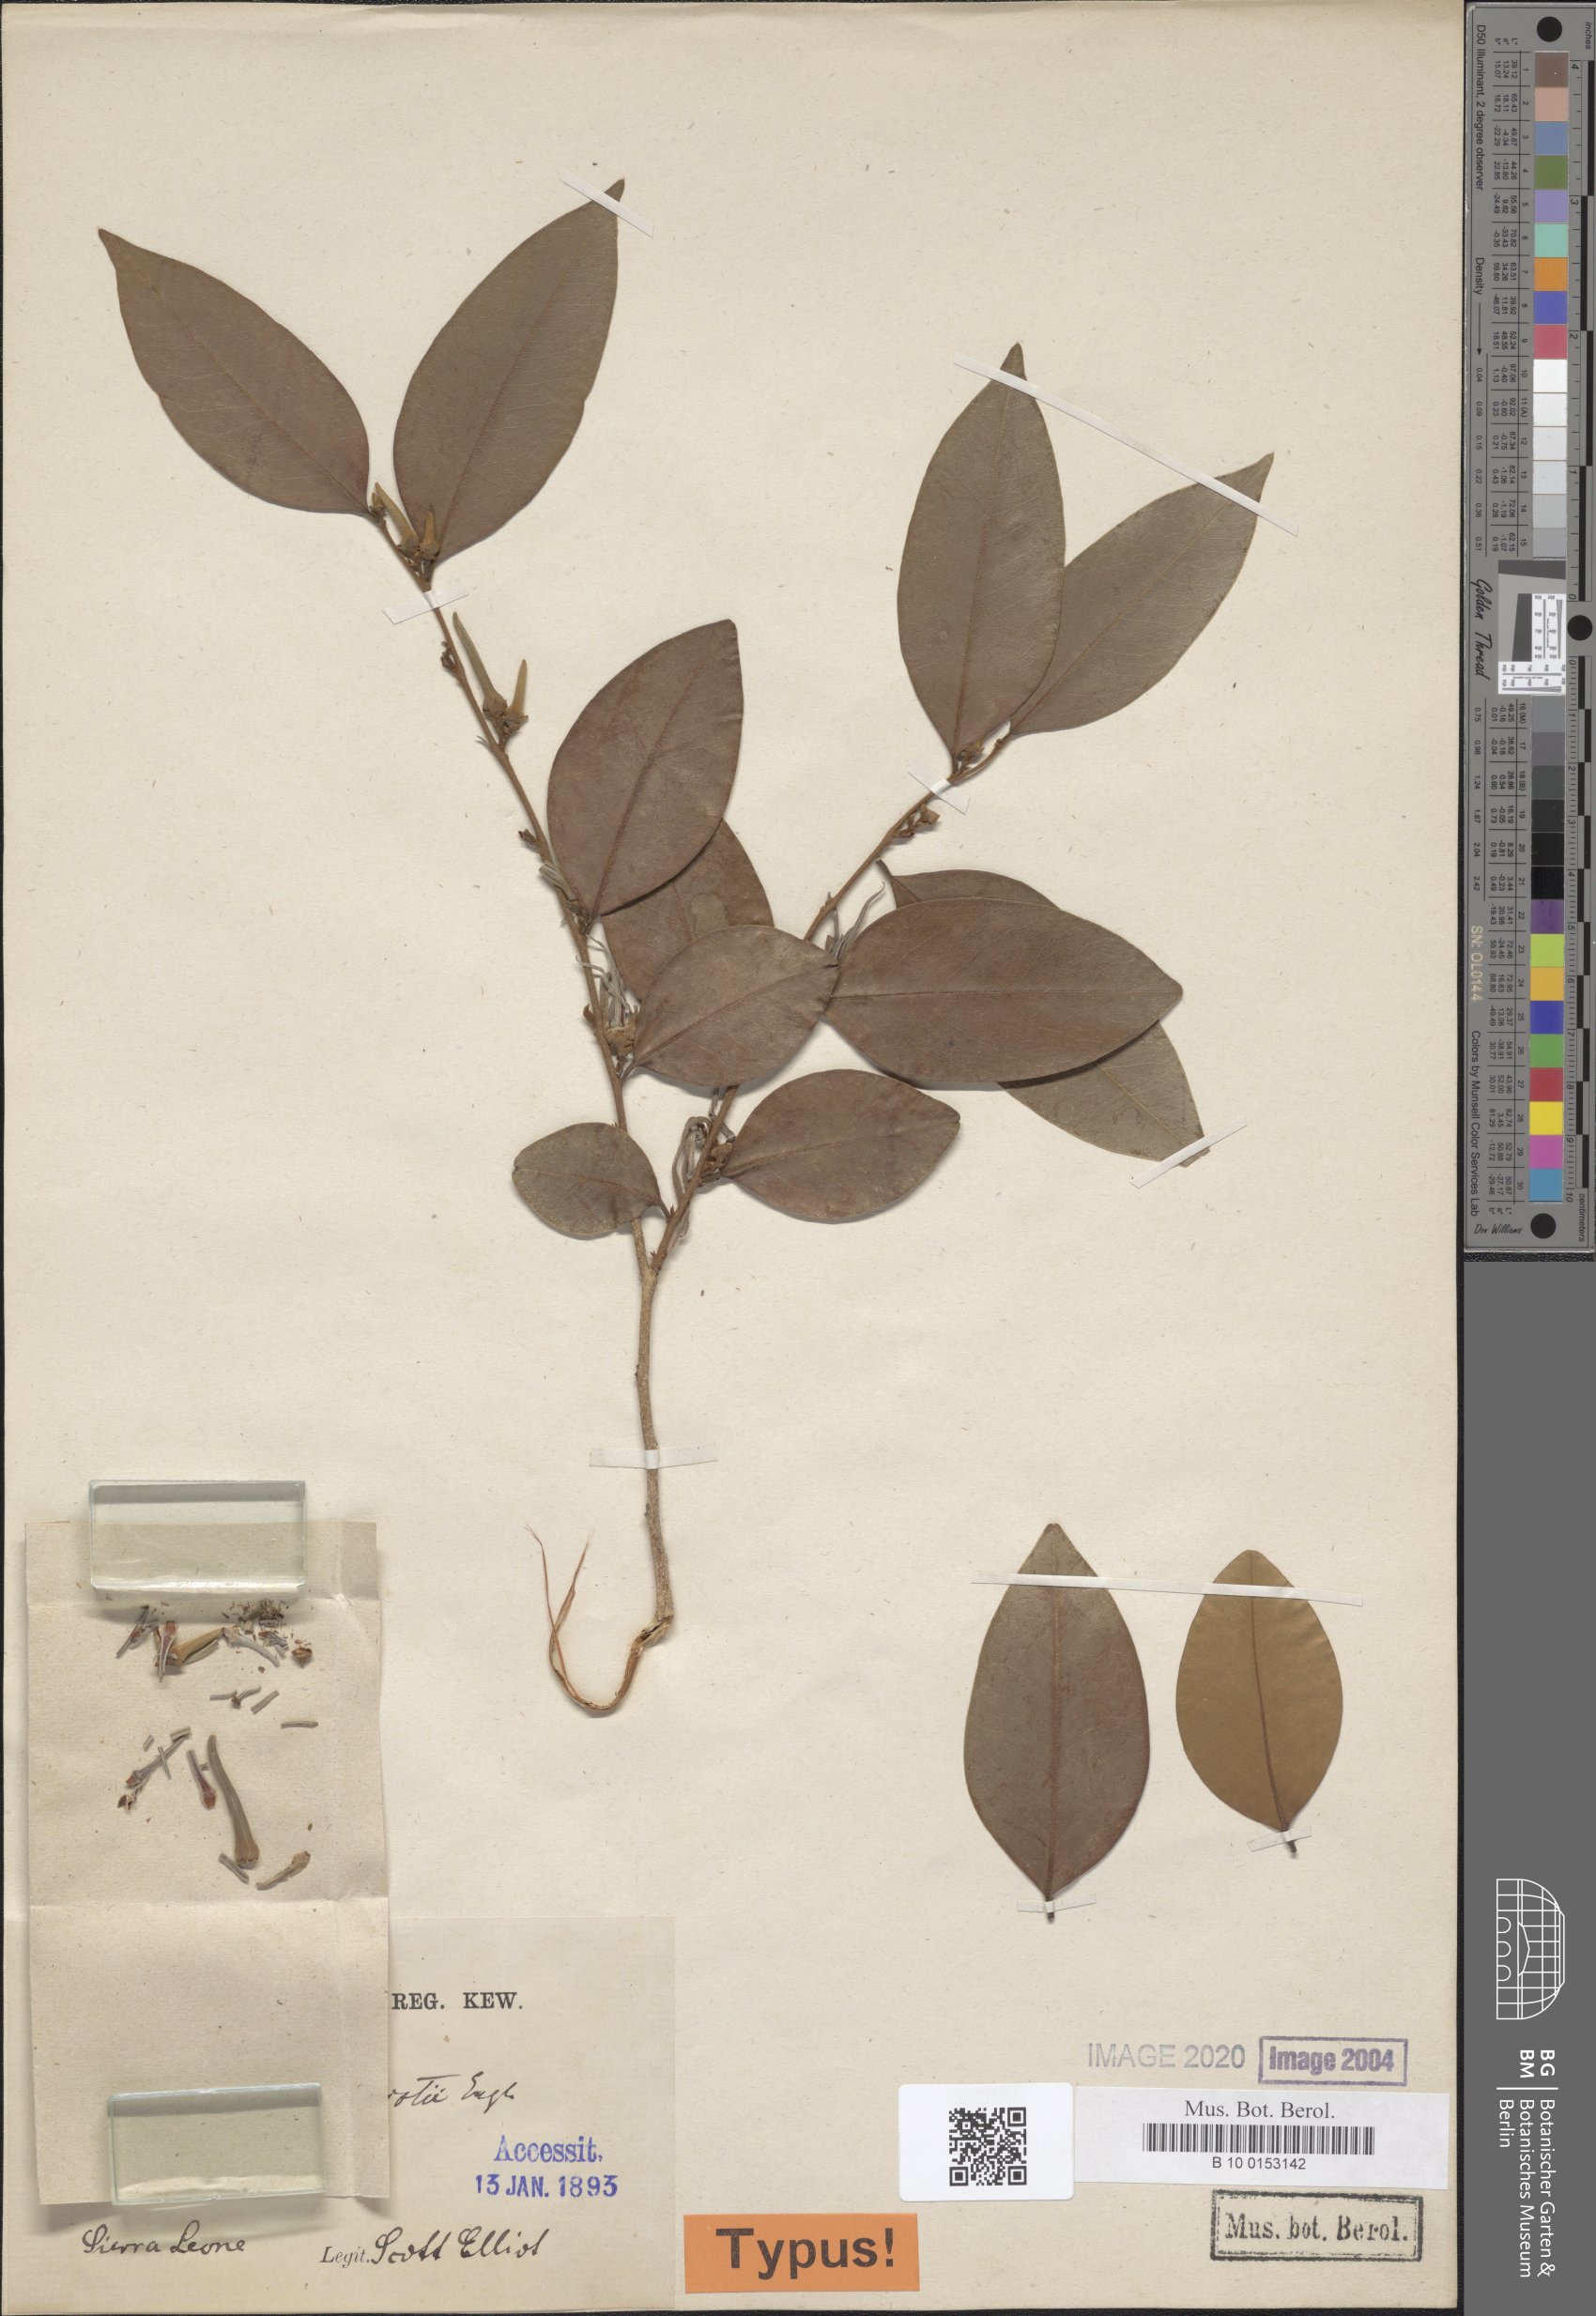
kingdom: Plantae
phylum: Tracheophyta
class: Magnoliopsida
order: Magnoliales
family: Annonaceae
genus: Xylopia
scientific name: Xylopia elliotii
